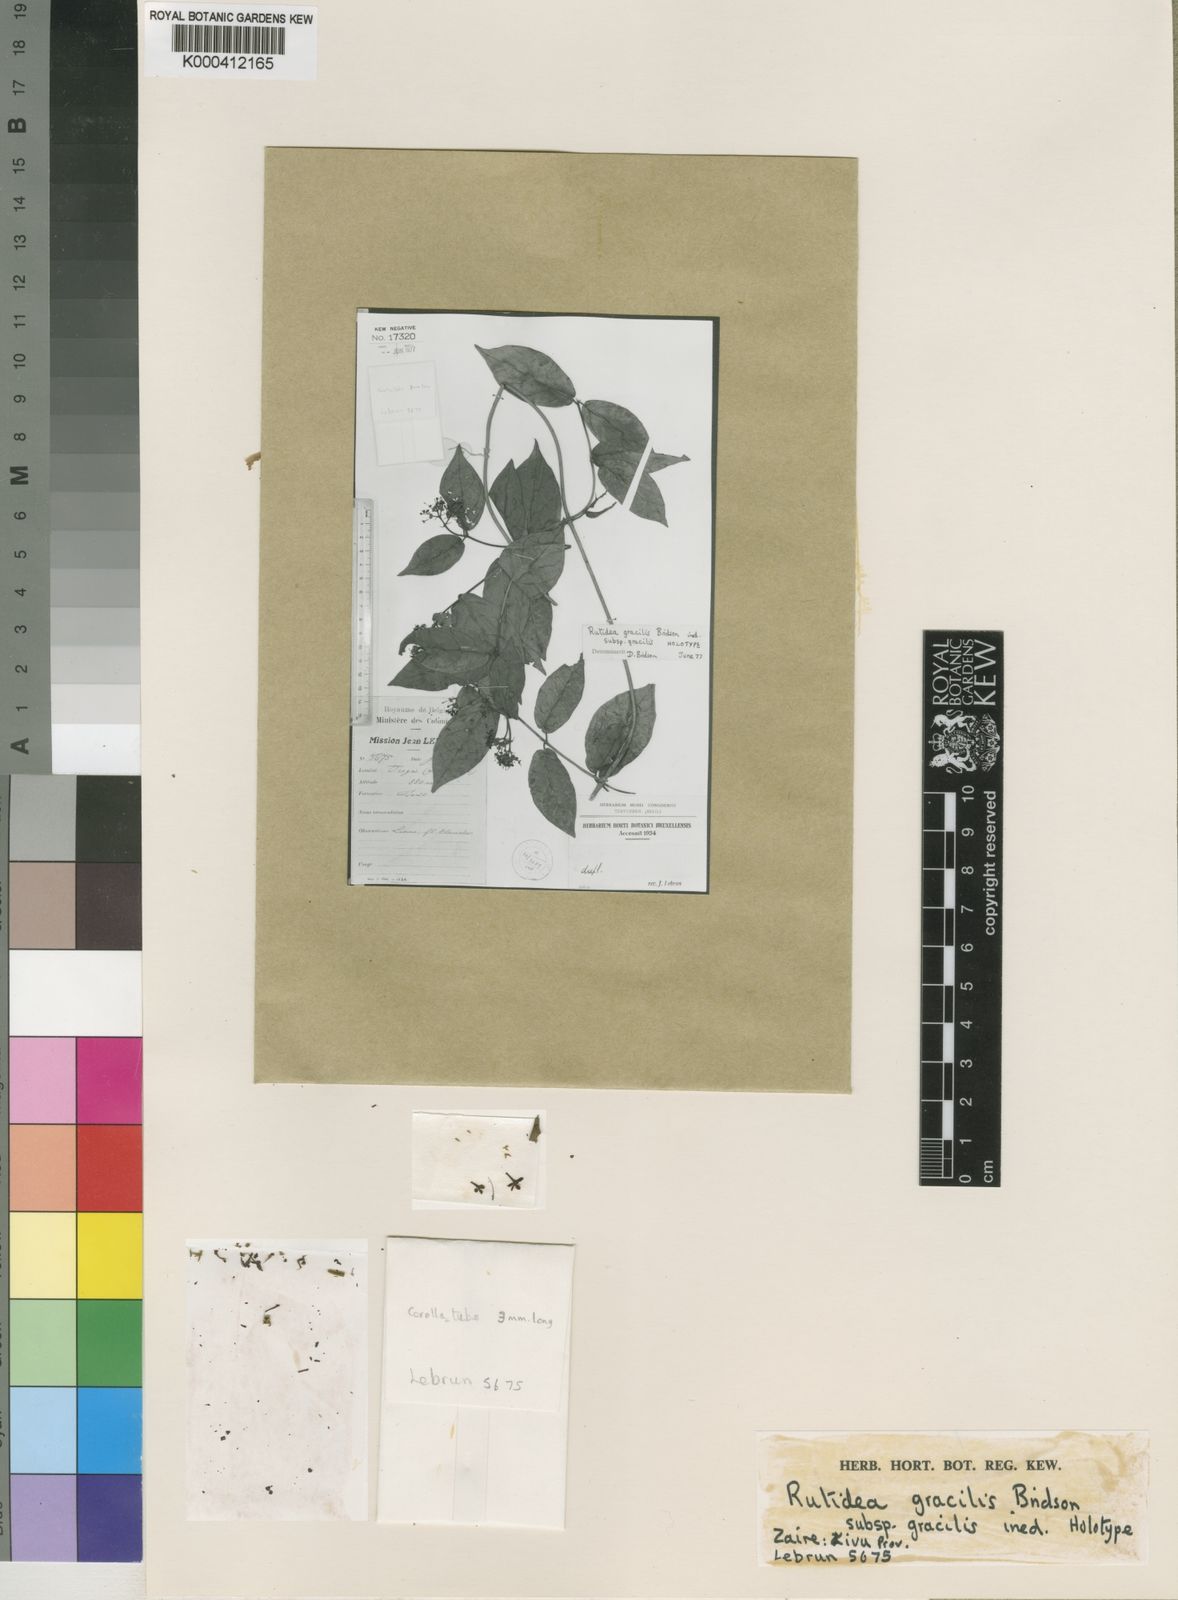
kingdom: Plantae
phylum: Tracheophyta
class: Magnoliopsida
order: Gentianales
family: Rubiaceae
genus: Rutidea
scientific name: Rutidea gracilis
